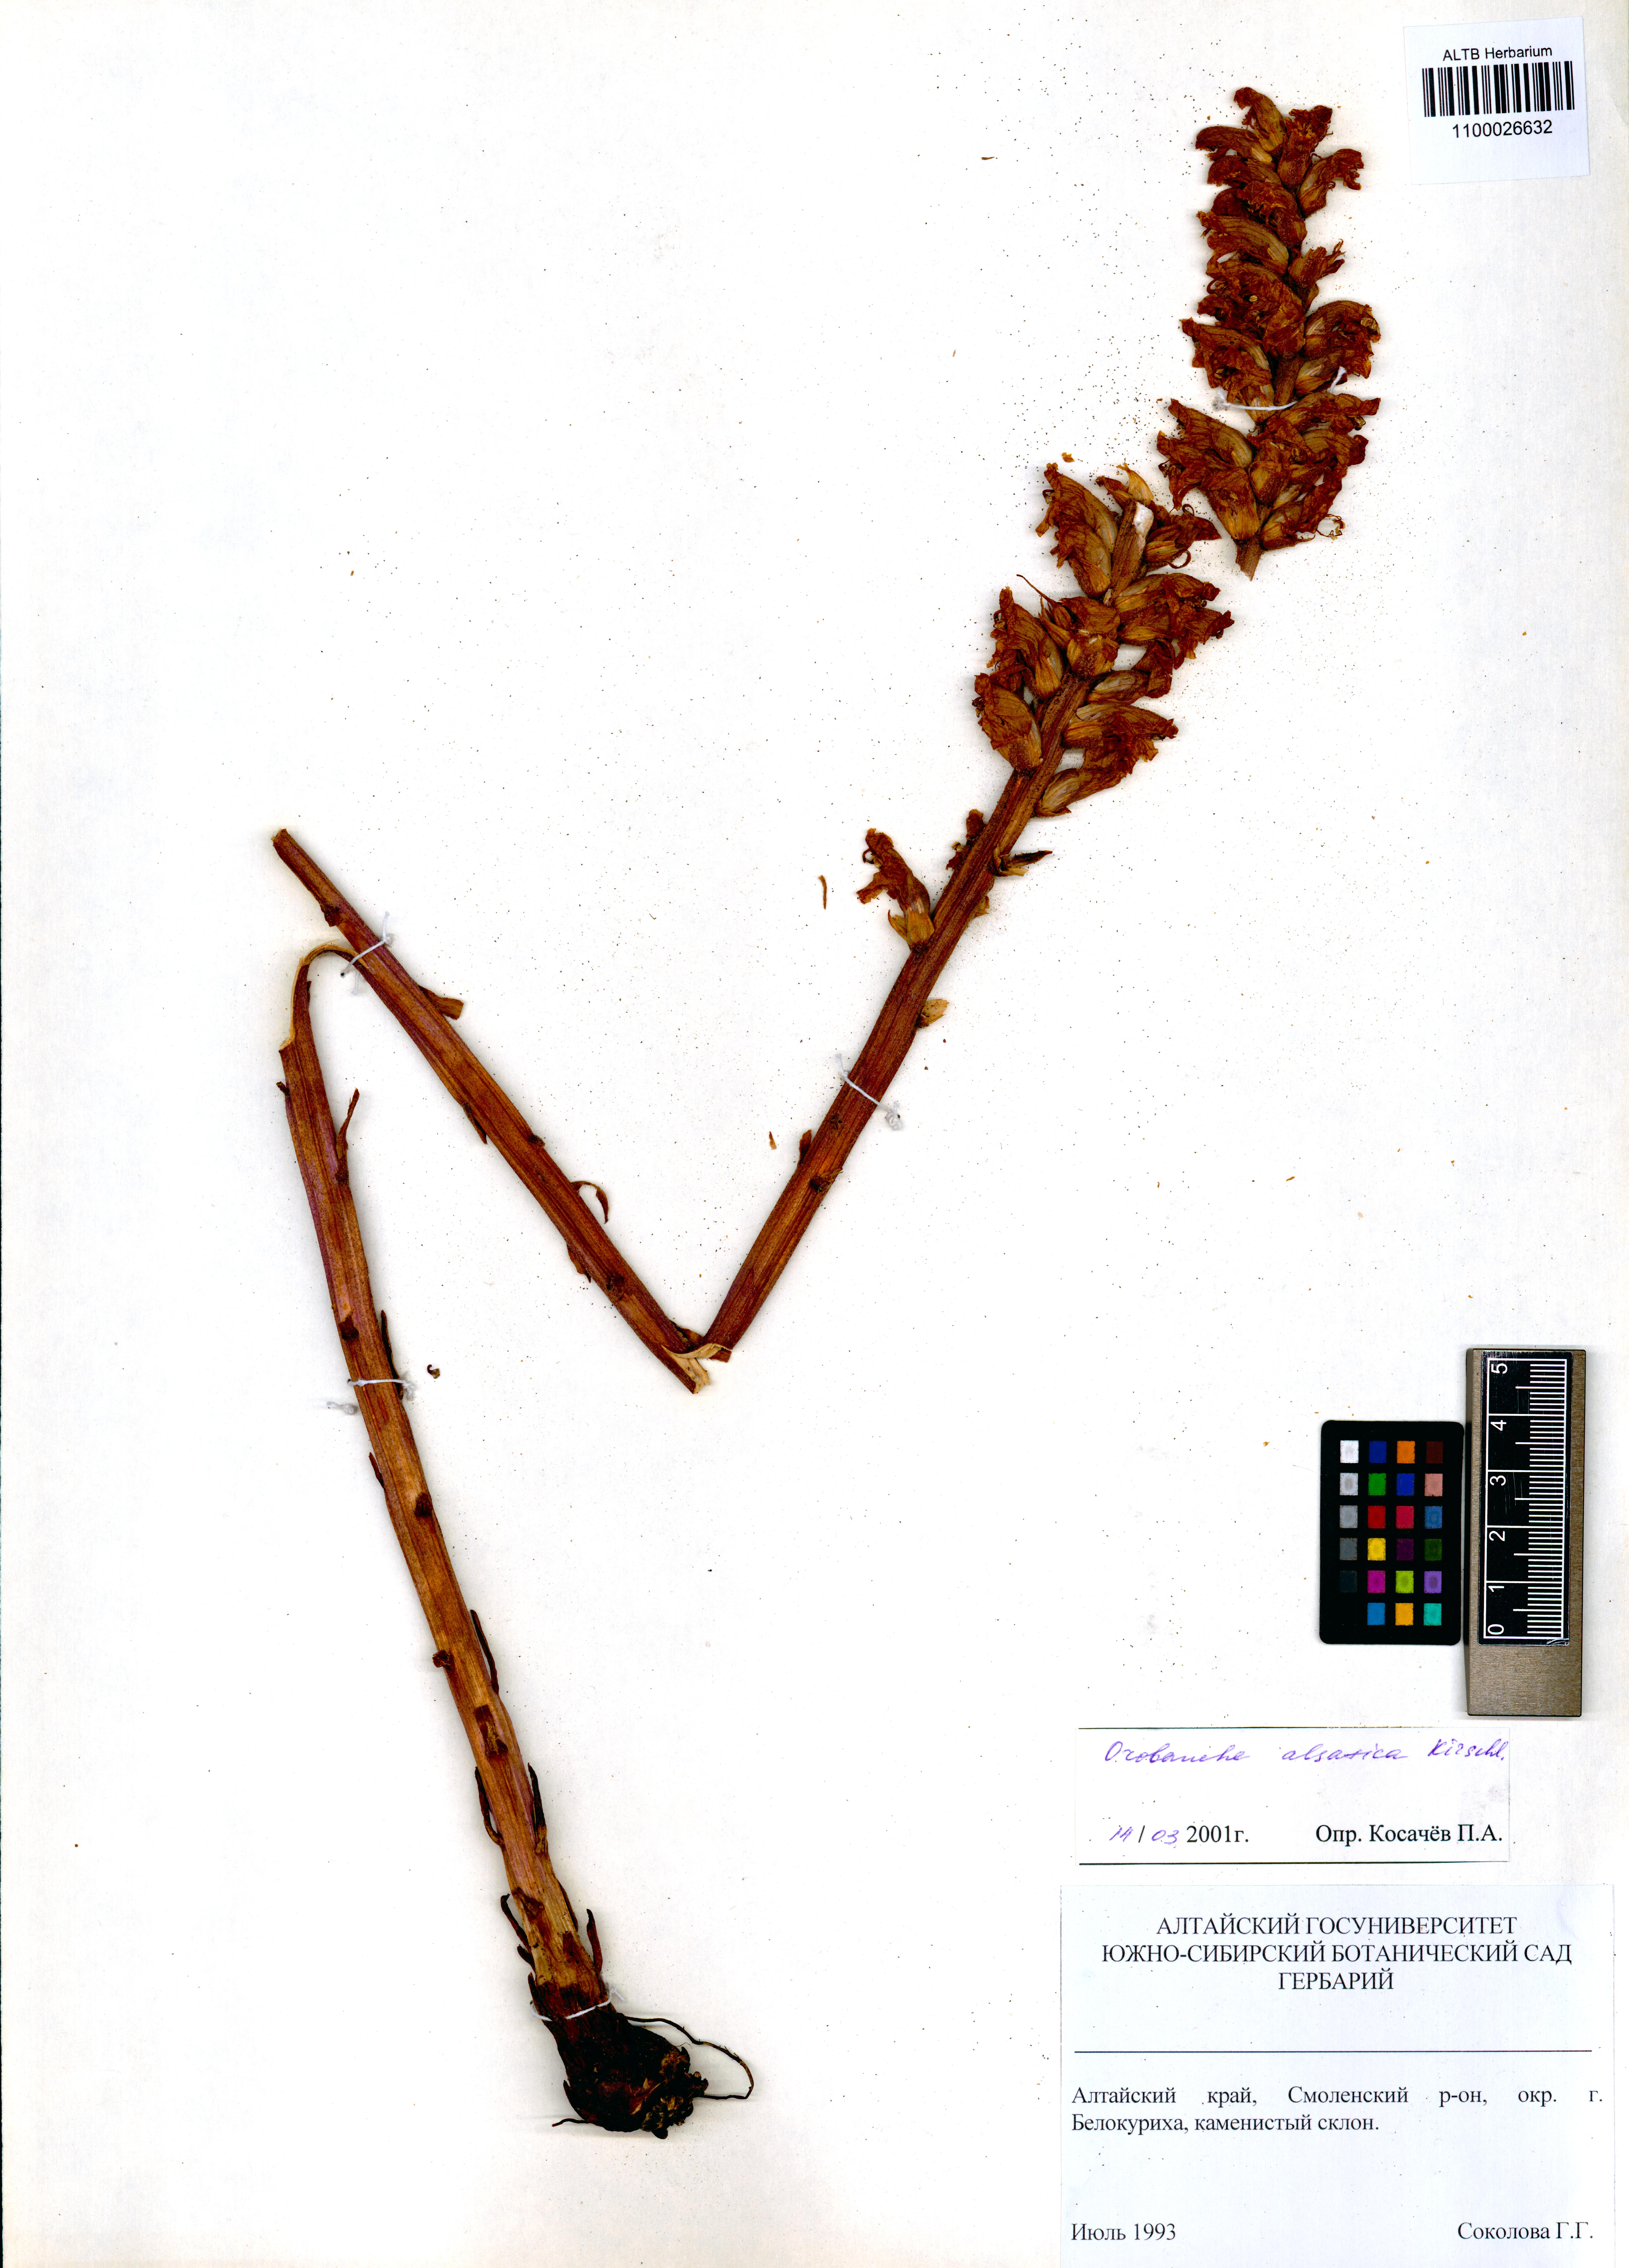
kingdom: Plantae
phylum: Tracheophyta
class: Magnoliopsida
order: Lamiales
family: Orobanchaceae
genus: Orobanche
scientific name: Orobanche alsatica
